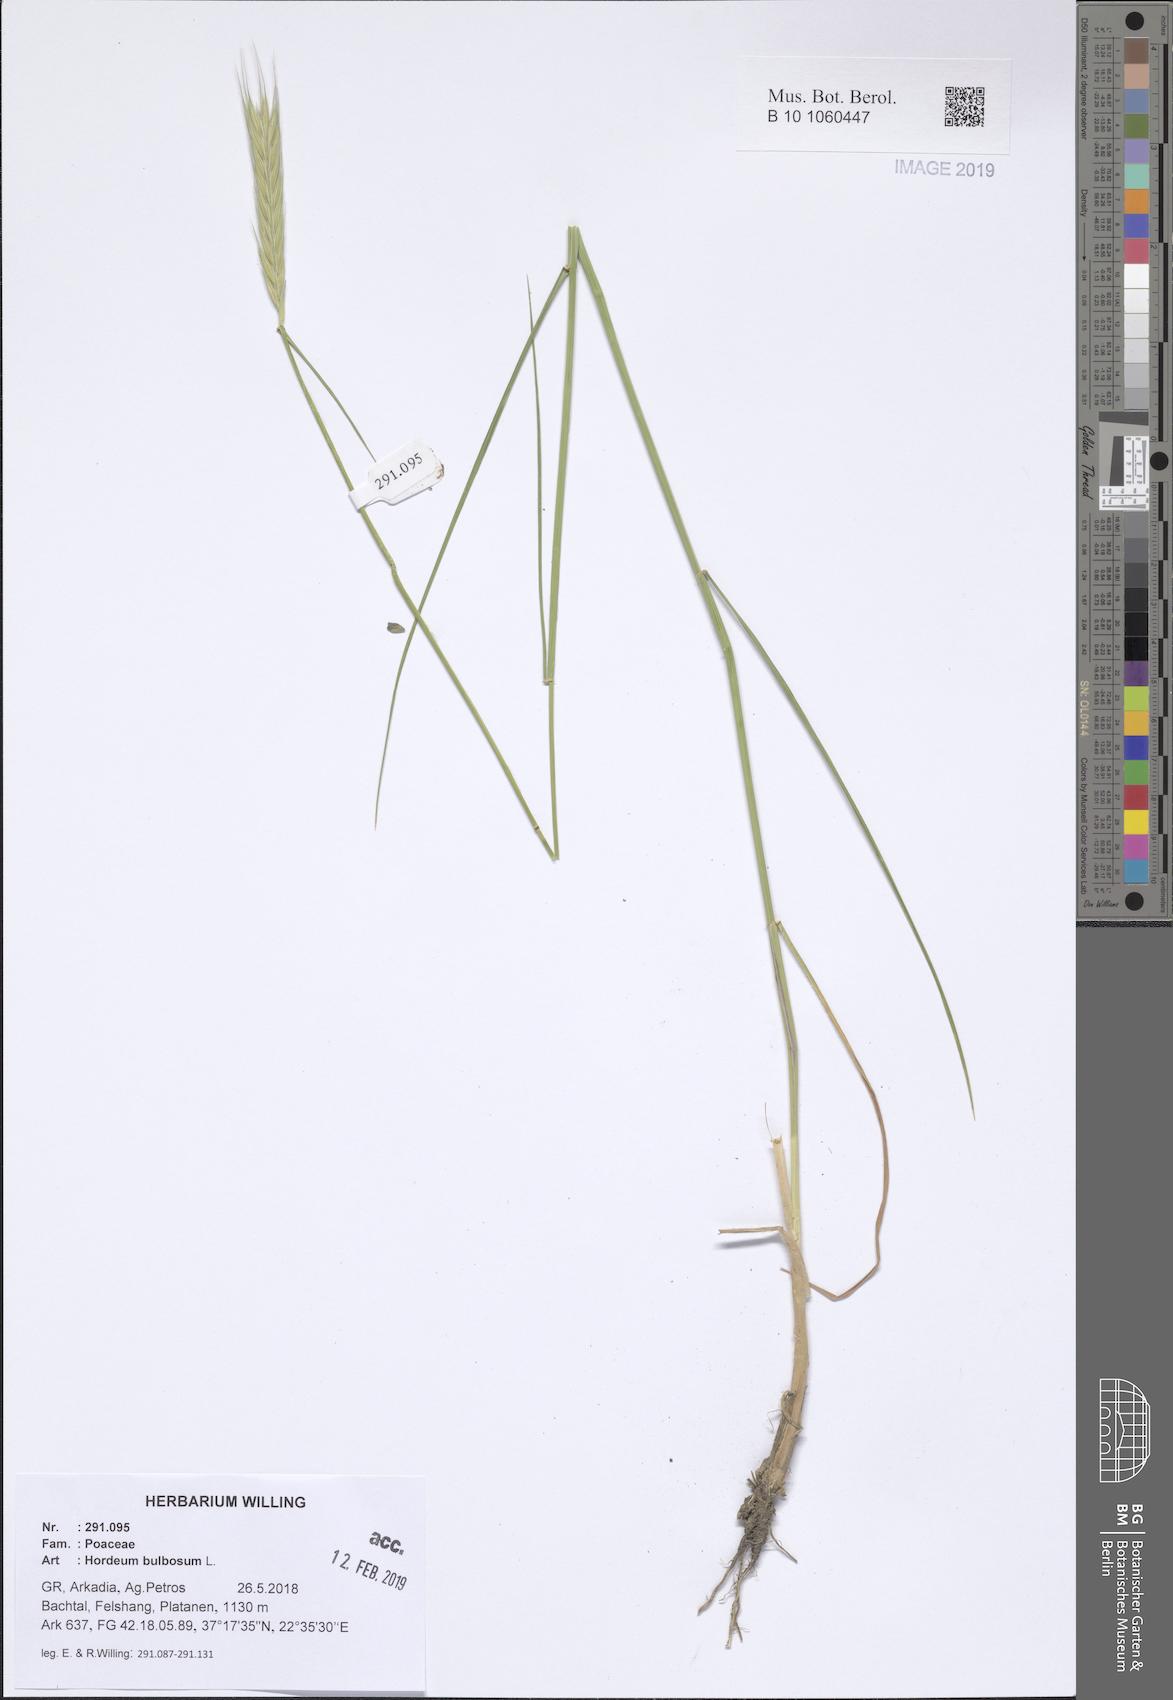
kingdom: Plantae
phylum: Tracheophyta
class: Liliopsida
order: Poales
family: Poaceae
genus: Hordeum
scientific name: Hordeum bulbosum
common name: Bulbous barley
